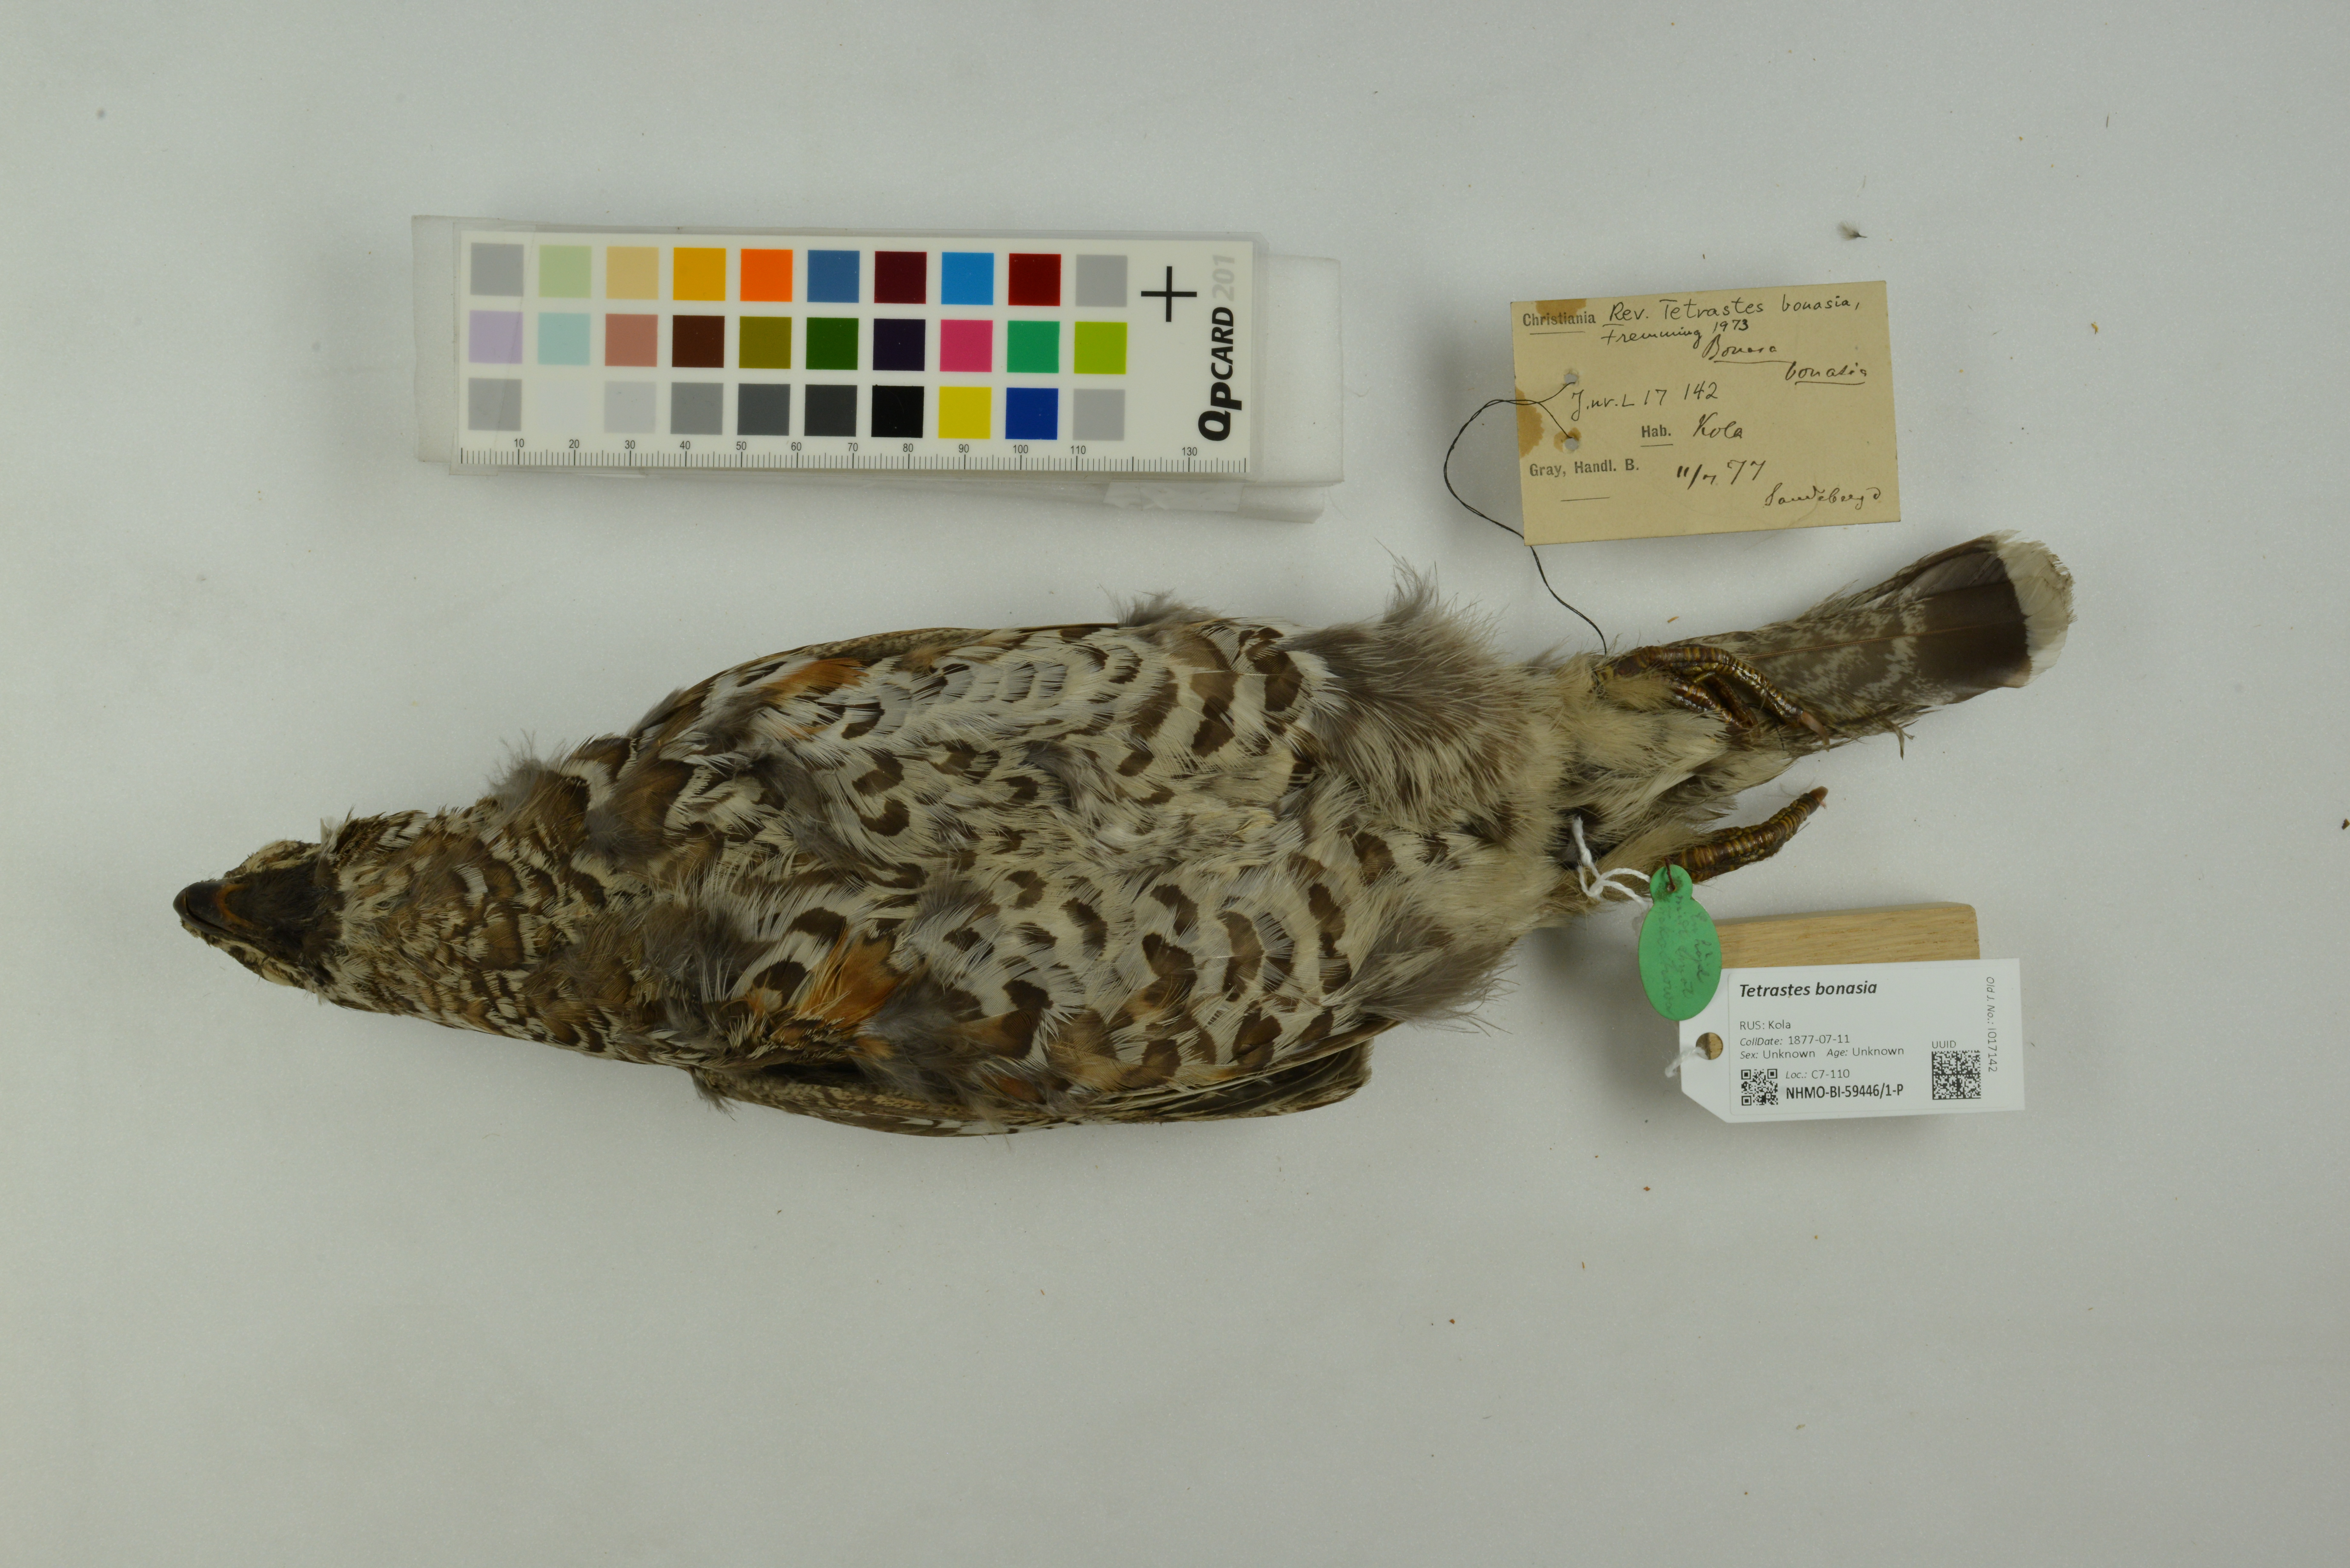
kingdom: Animalia
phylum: Chordata
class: Aves
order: Galliformes
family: Phasianidae
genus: Tetrastes
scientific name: Tetrastes bonasia
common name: Hazel grouse
